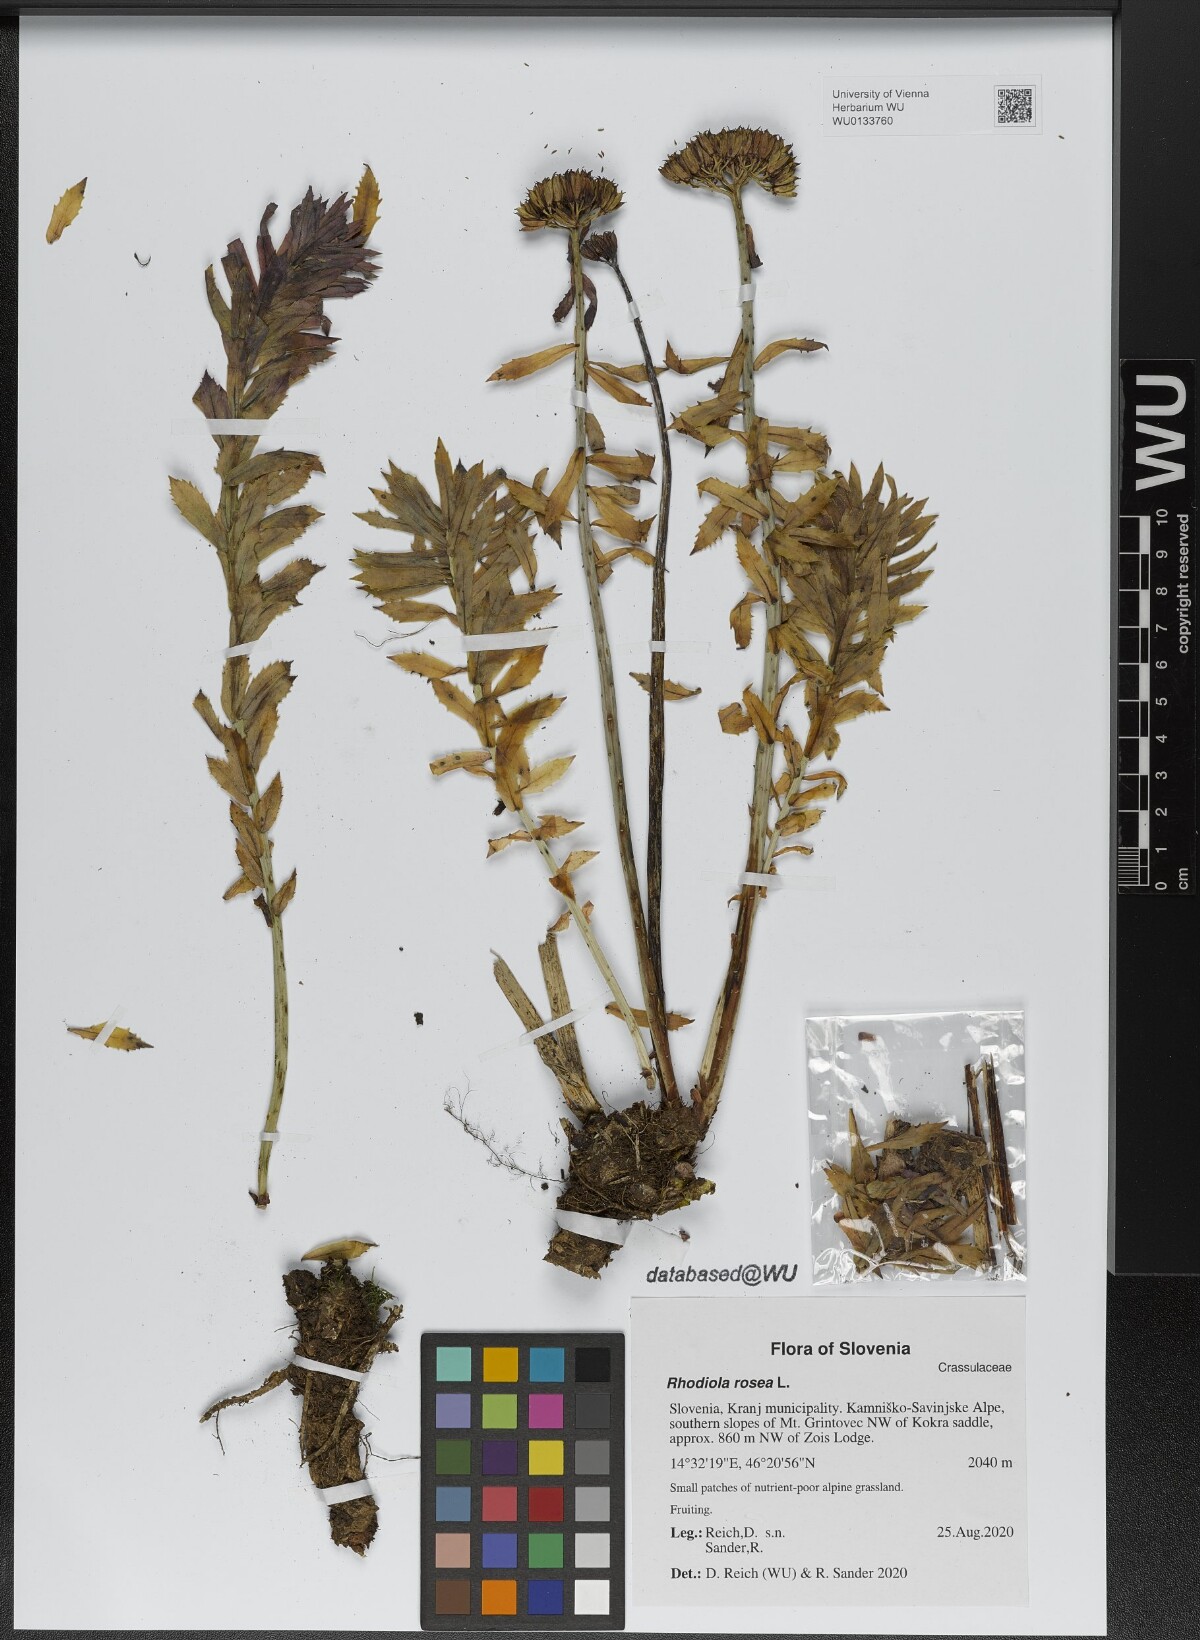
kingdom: Plantae
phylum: Tracheophyta
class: Magnoliopsida
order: Saxifragales
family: Crassulaceae
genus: Rhodiola
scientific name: Rhodiola rosea
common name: Roseroot
